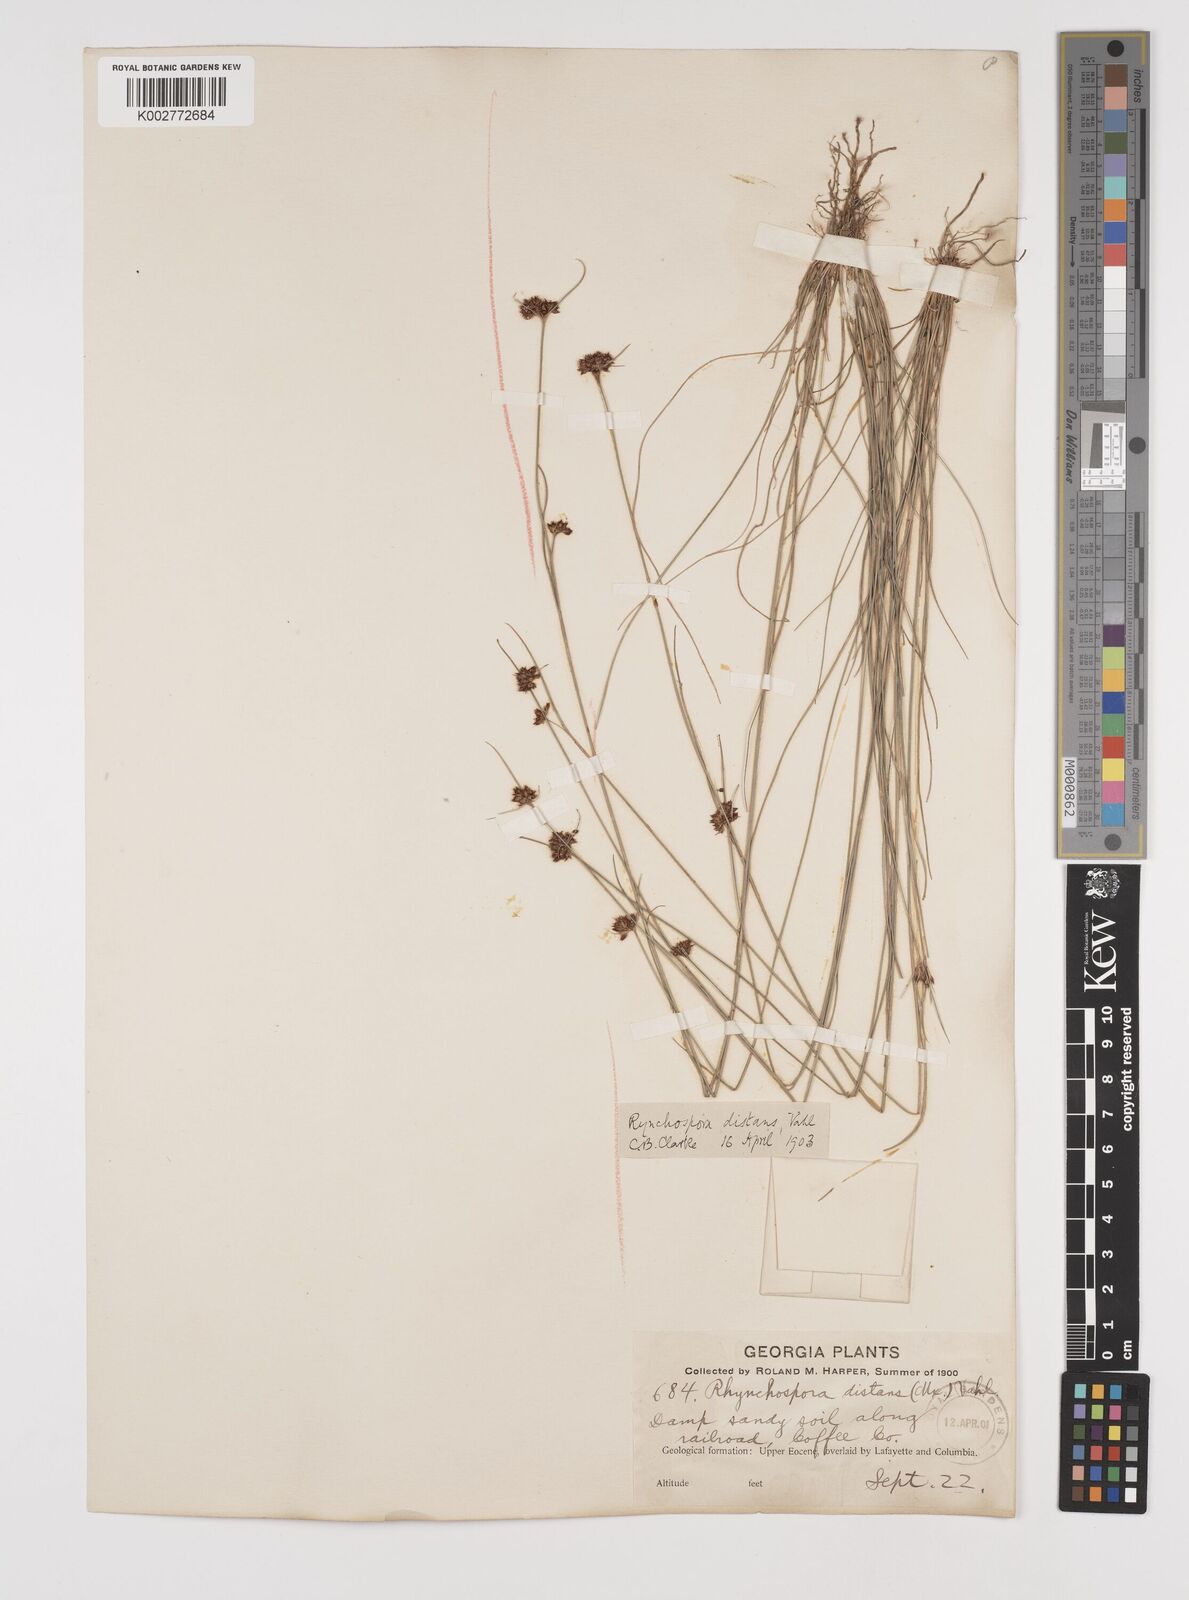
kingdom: Plantae
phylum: Tracheophyta
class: Liliopsida
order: Poales
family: Cyperaceae
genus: Rhynchospora
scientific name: Rhynchospora fascicularis
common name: Fascicled beak sedge
